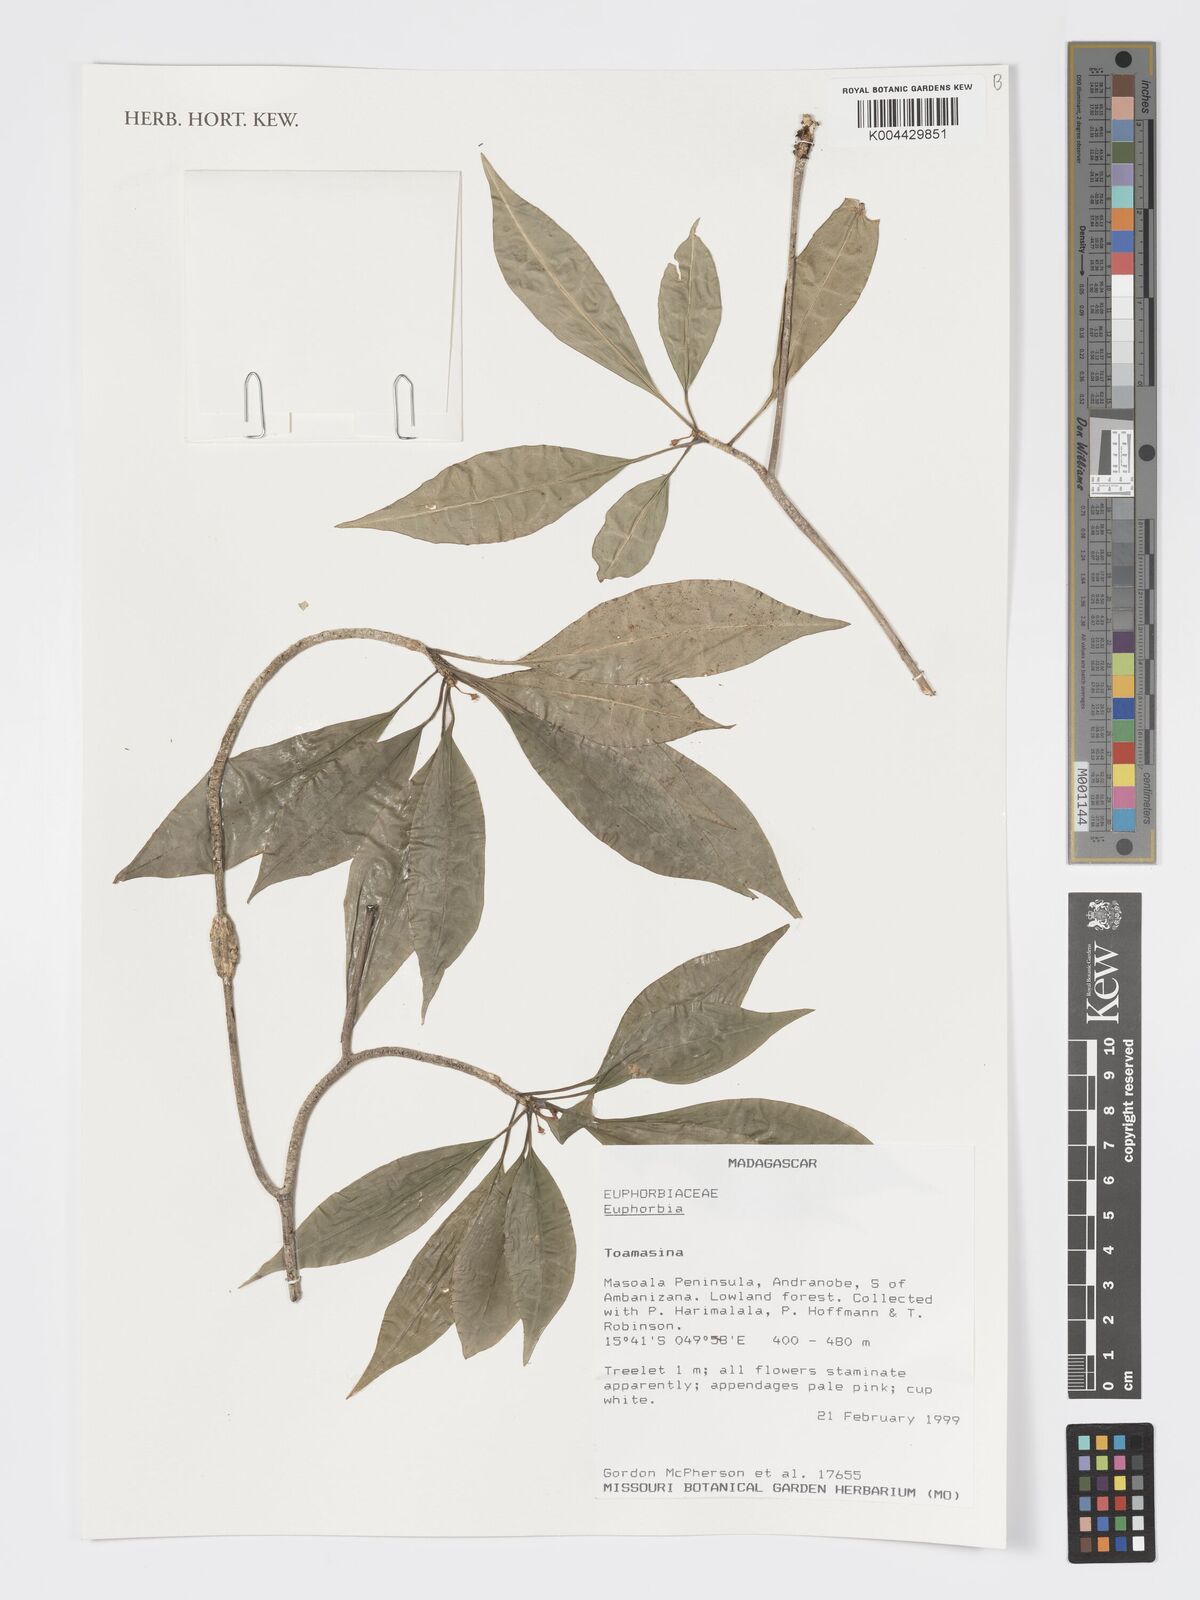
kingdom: Plantae
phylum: Tracheophyta
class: Magnoliopsida
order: Malpighiales
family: Euphorbiaceae
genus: Euphorbia
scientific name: Euphorbia tetraptera
